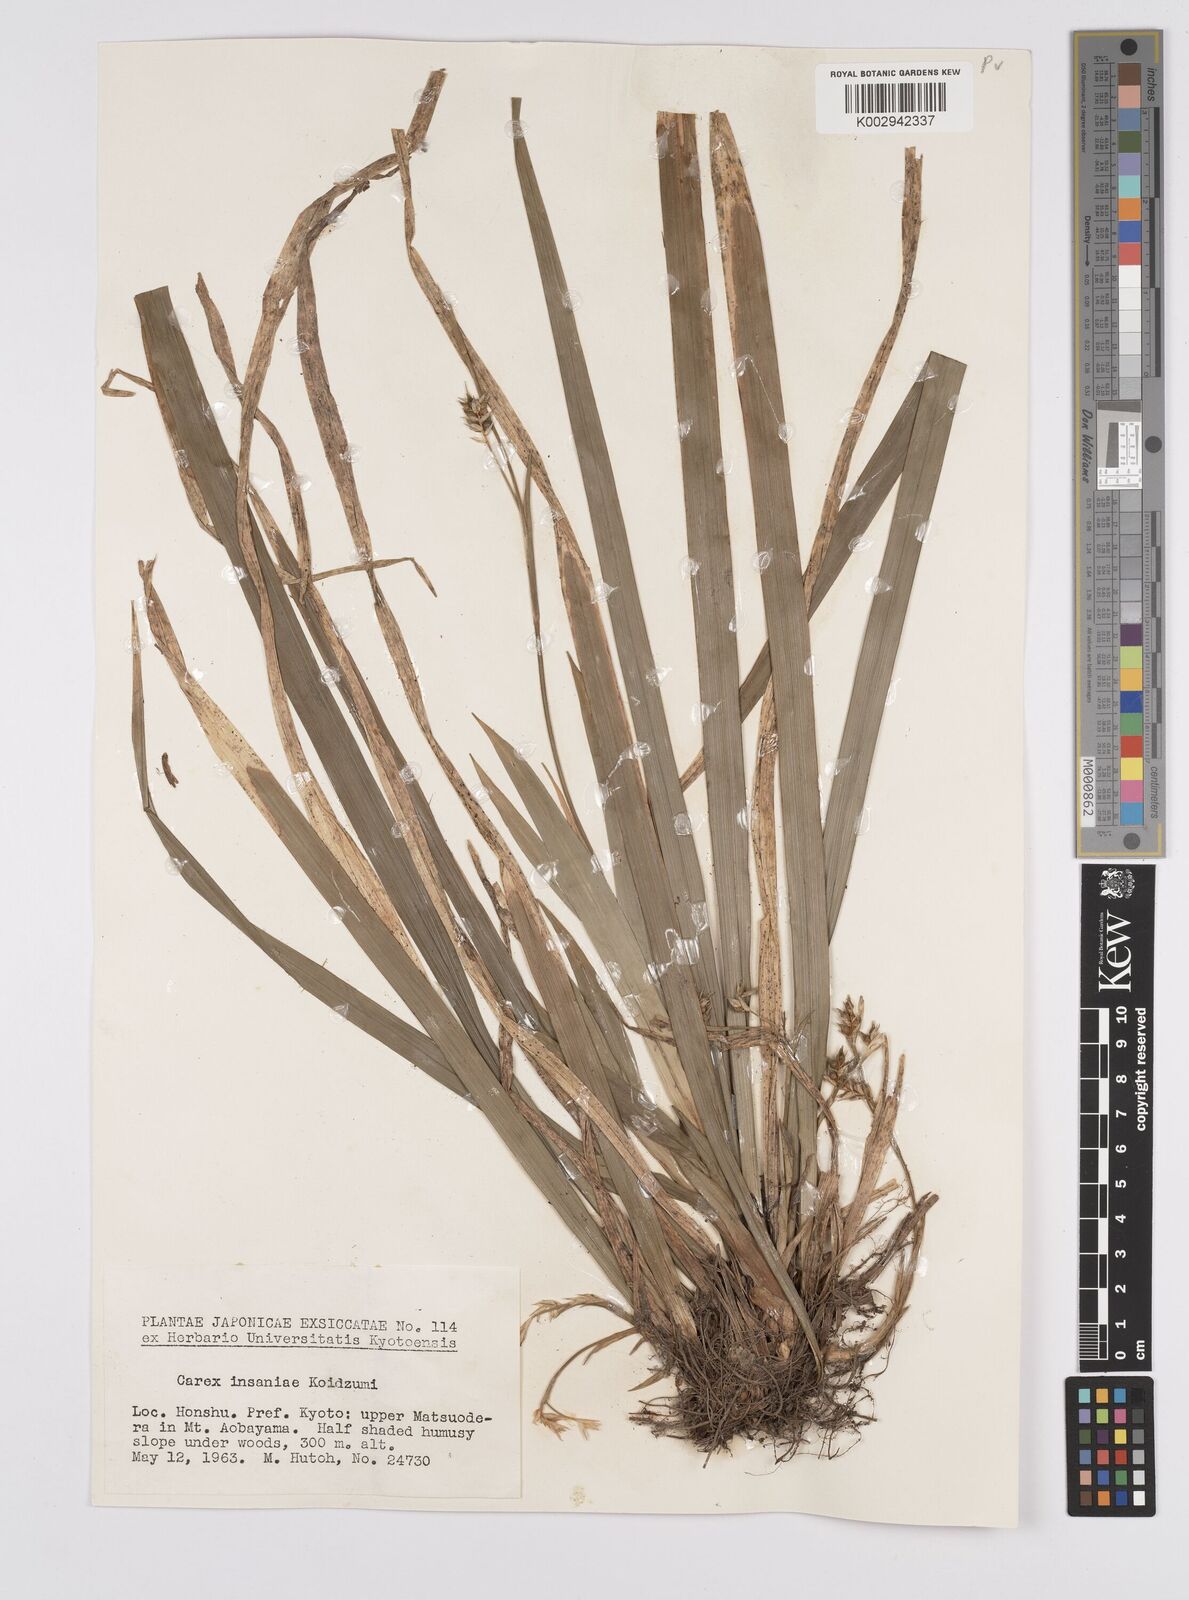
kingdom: Plantae
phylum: Tracheophyta
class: Liliopsida
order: Poales
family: Cyperaceae
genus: Carex
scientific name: Carex phacota
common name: Lakeshore sedge
